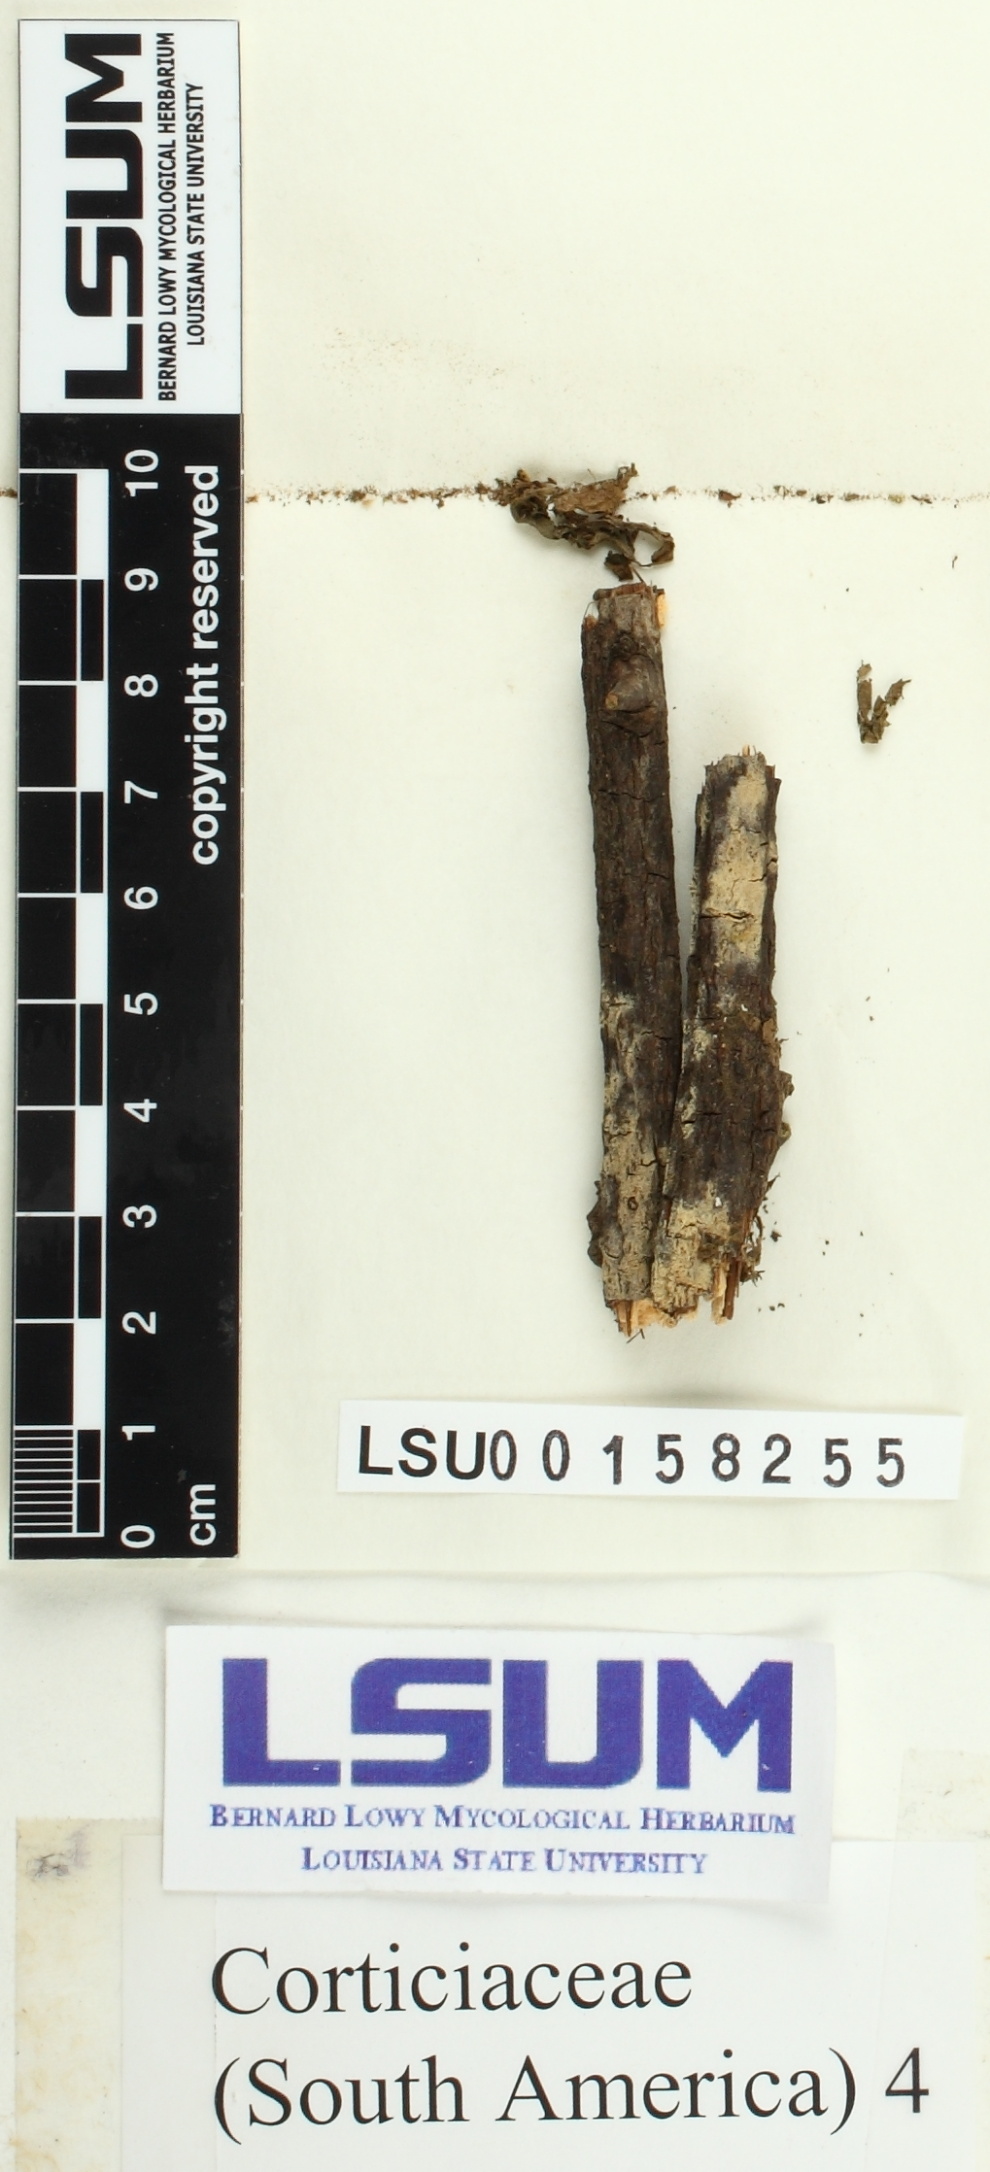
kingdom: Fungi
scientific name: Fungi
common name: Fungi
